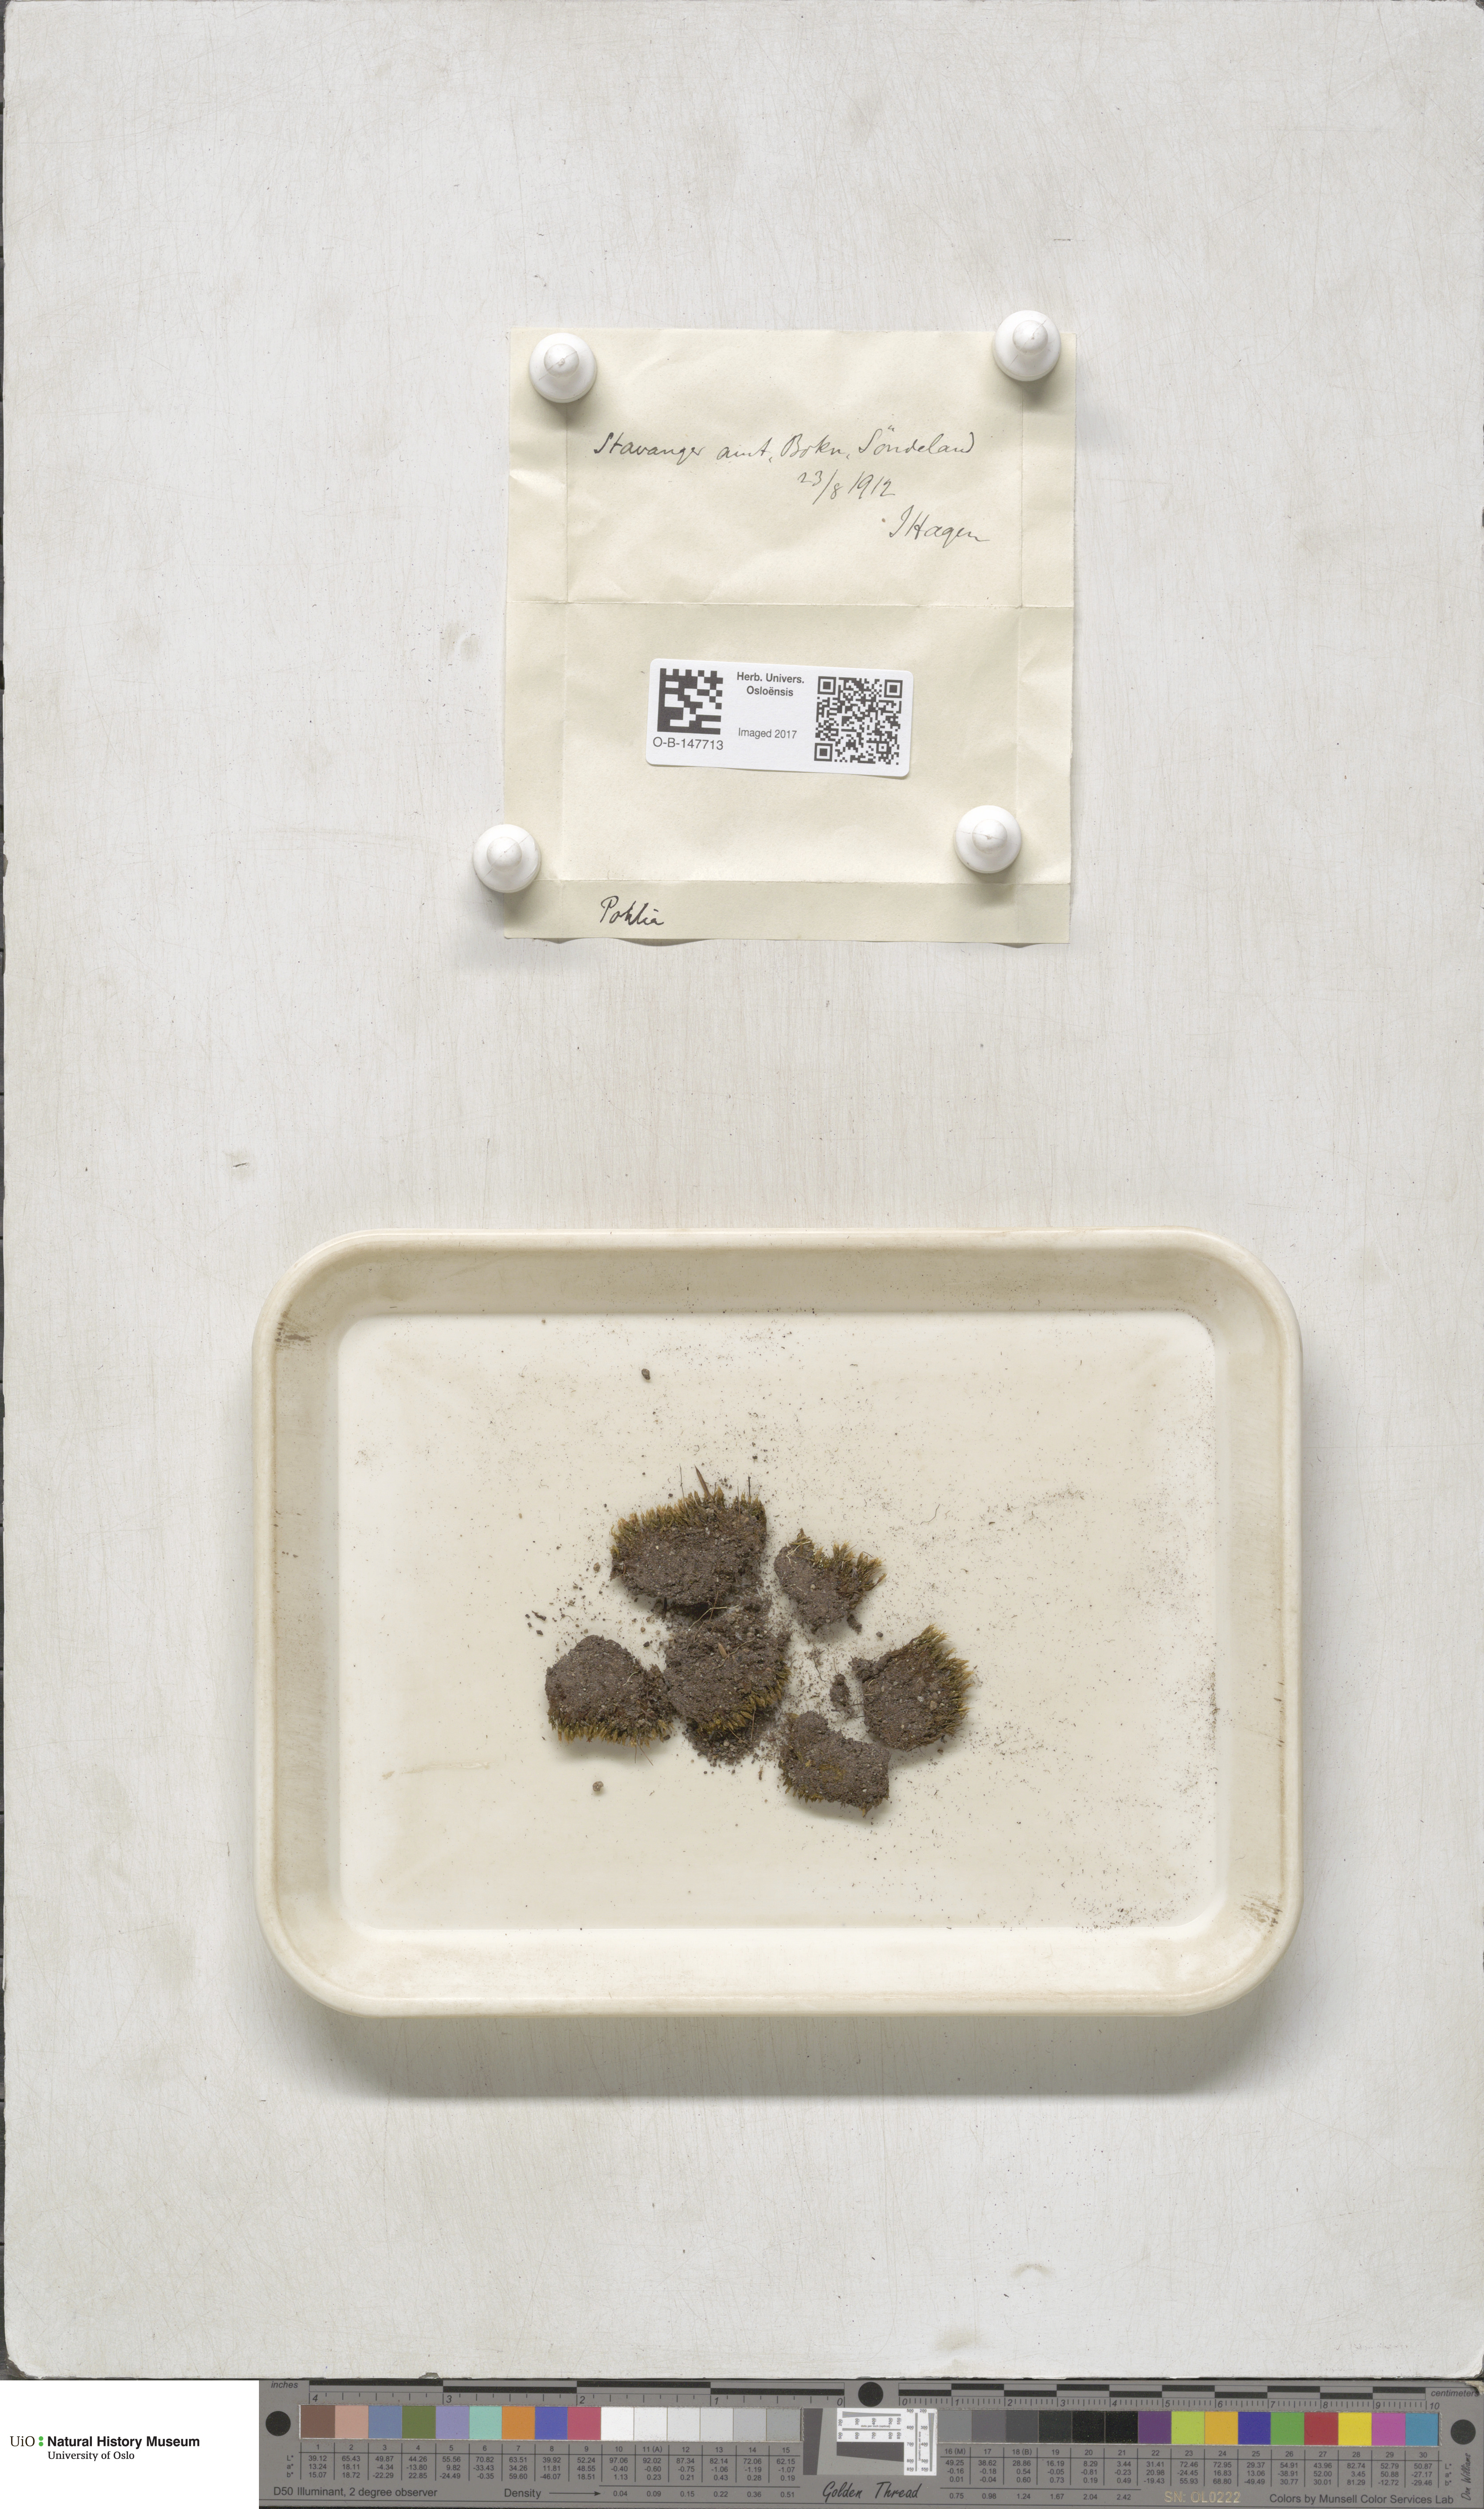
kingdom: Plantae
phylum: Bryophyta
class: Bryopsida
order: Bryales
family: Mniaceae
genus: Pohlia
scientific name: Pohlia
